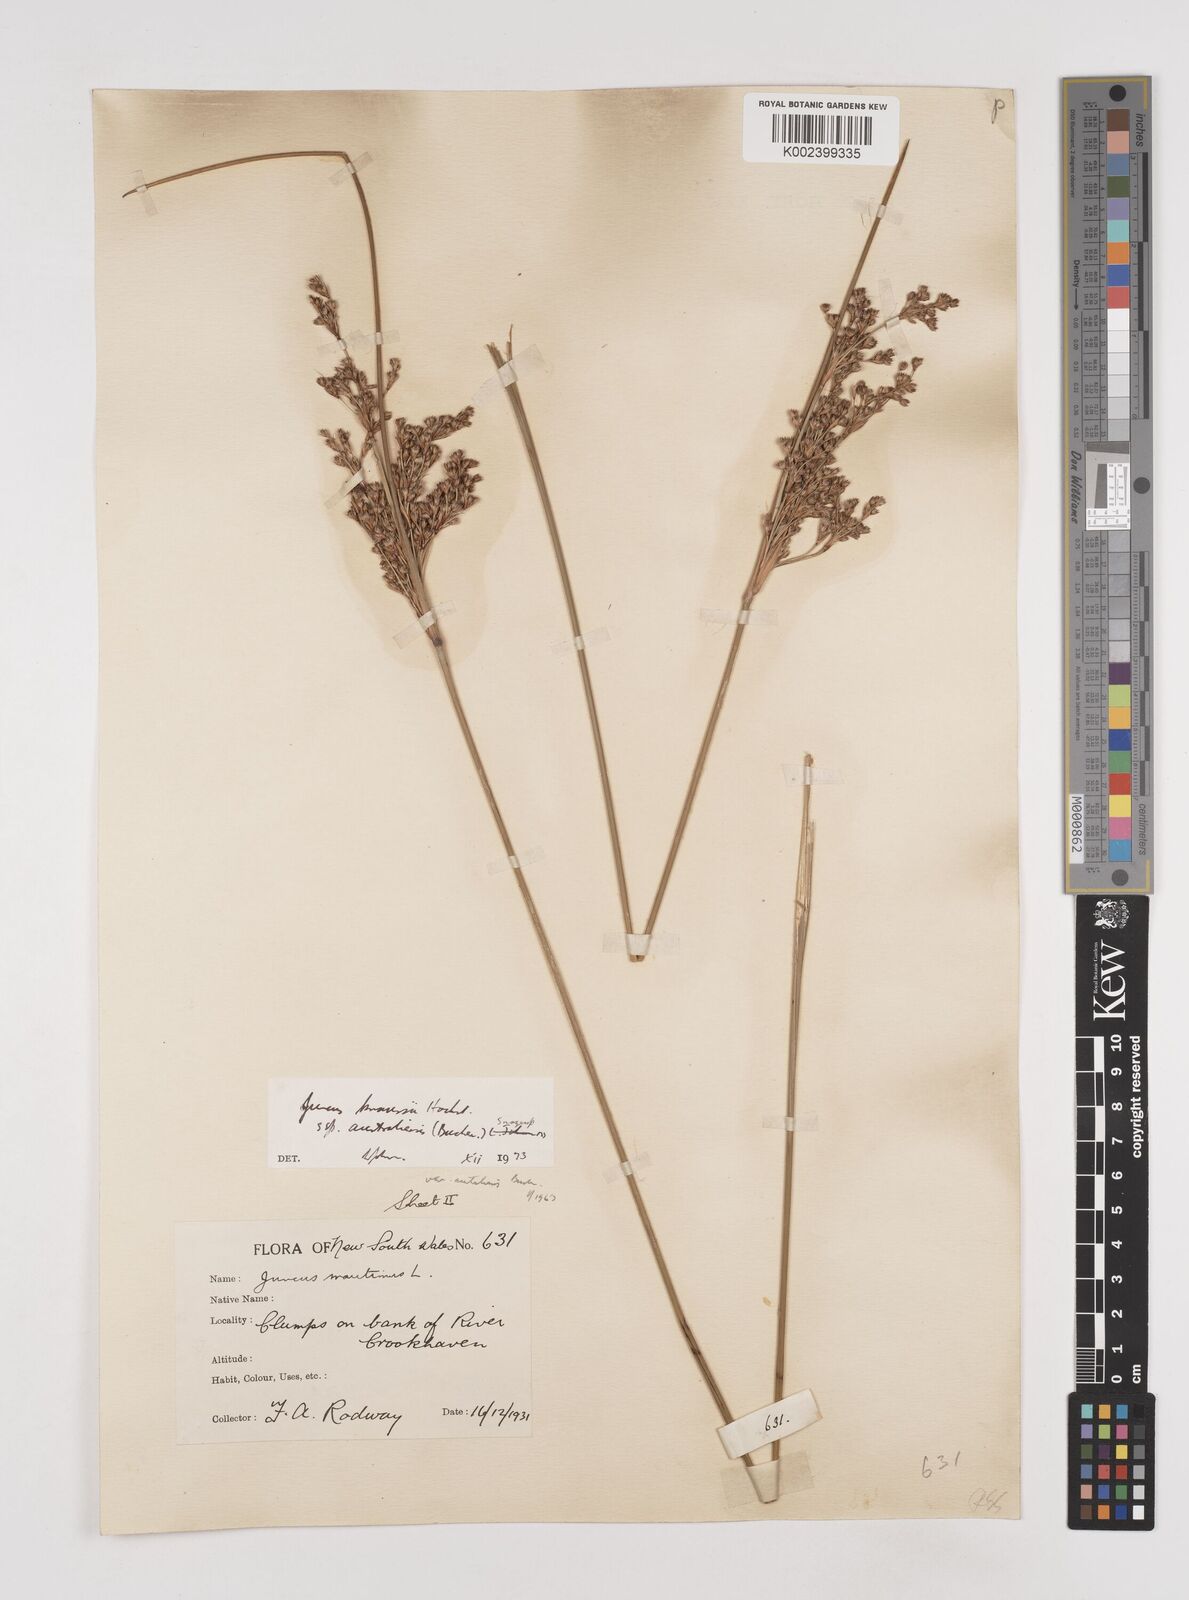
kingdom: Plantae
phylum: Tracheophyta
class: Liliopsida
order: Poales
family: Juncaceae
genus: Juncus
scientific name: Juncus kraussii
